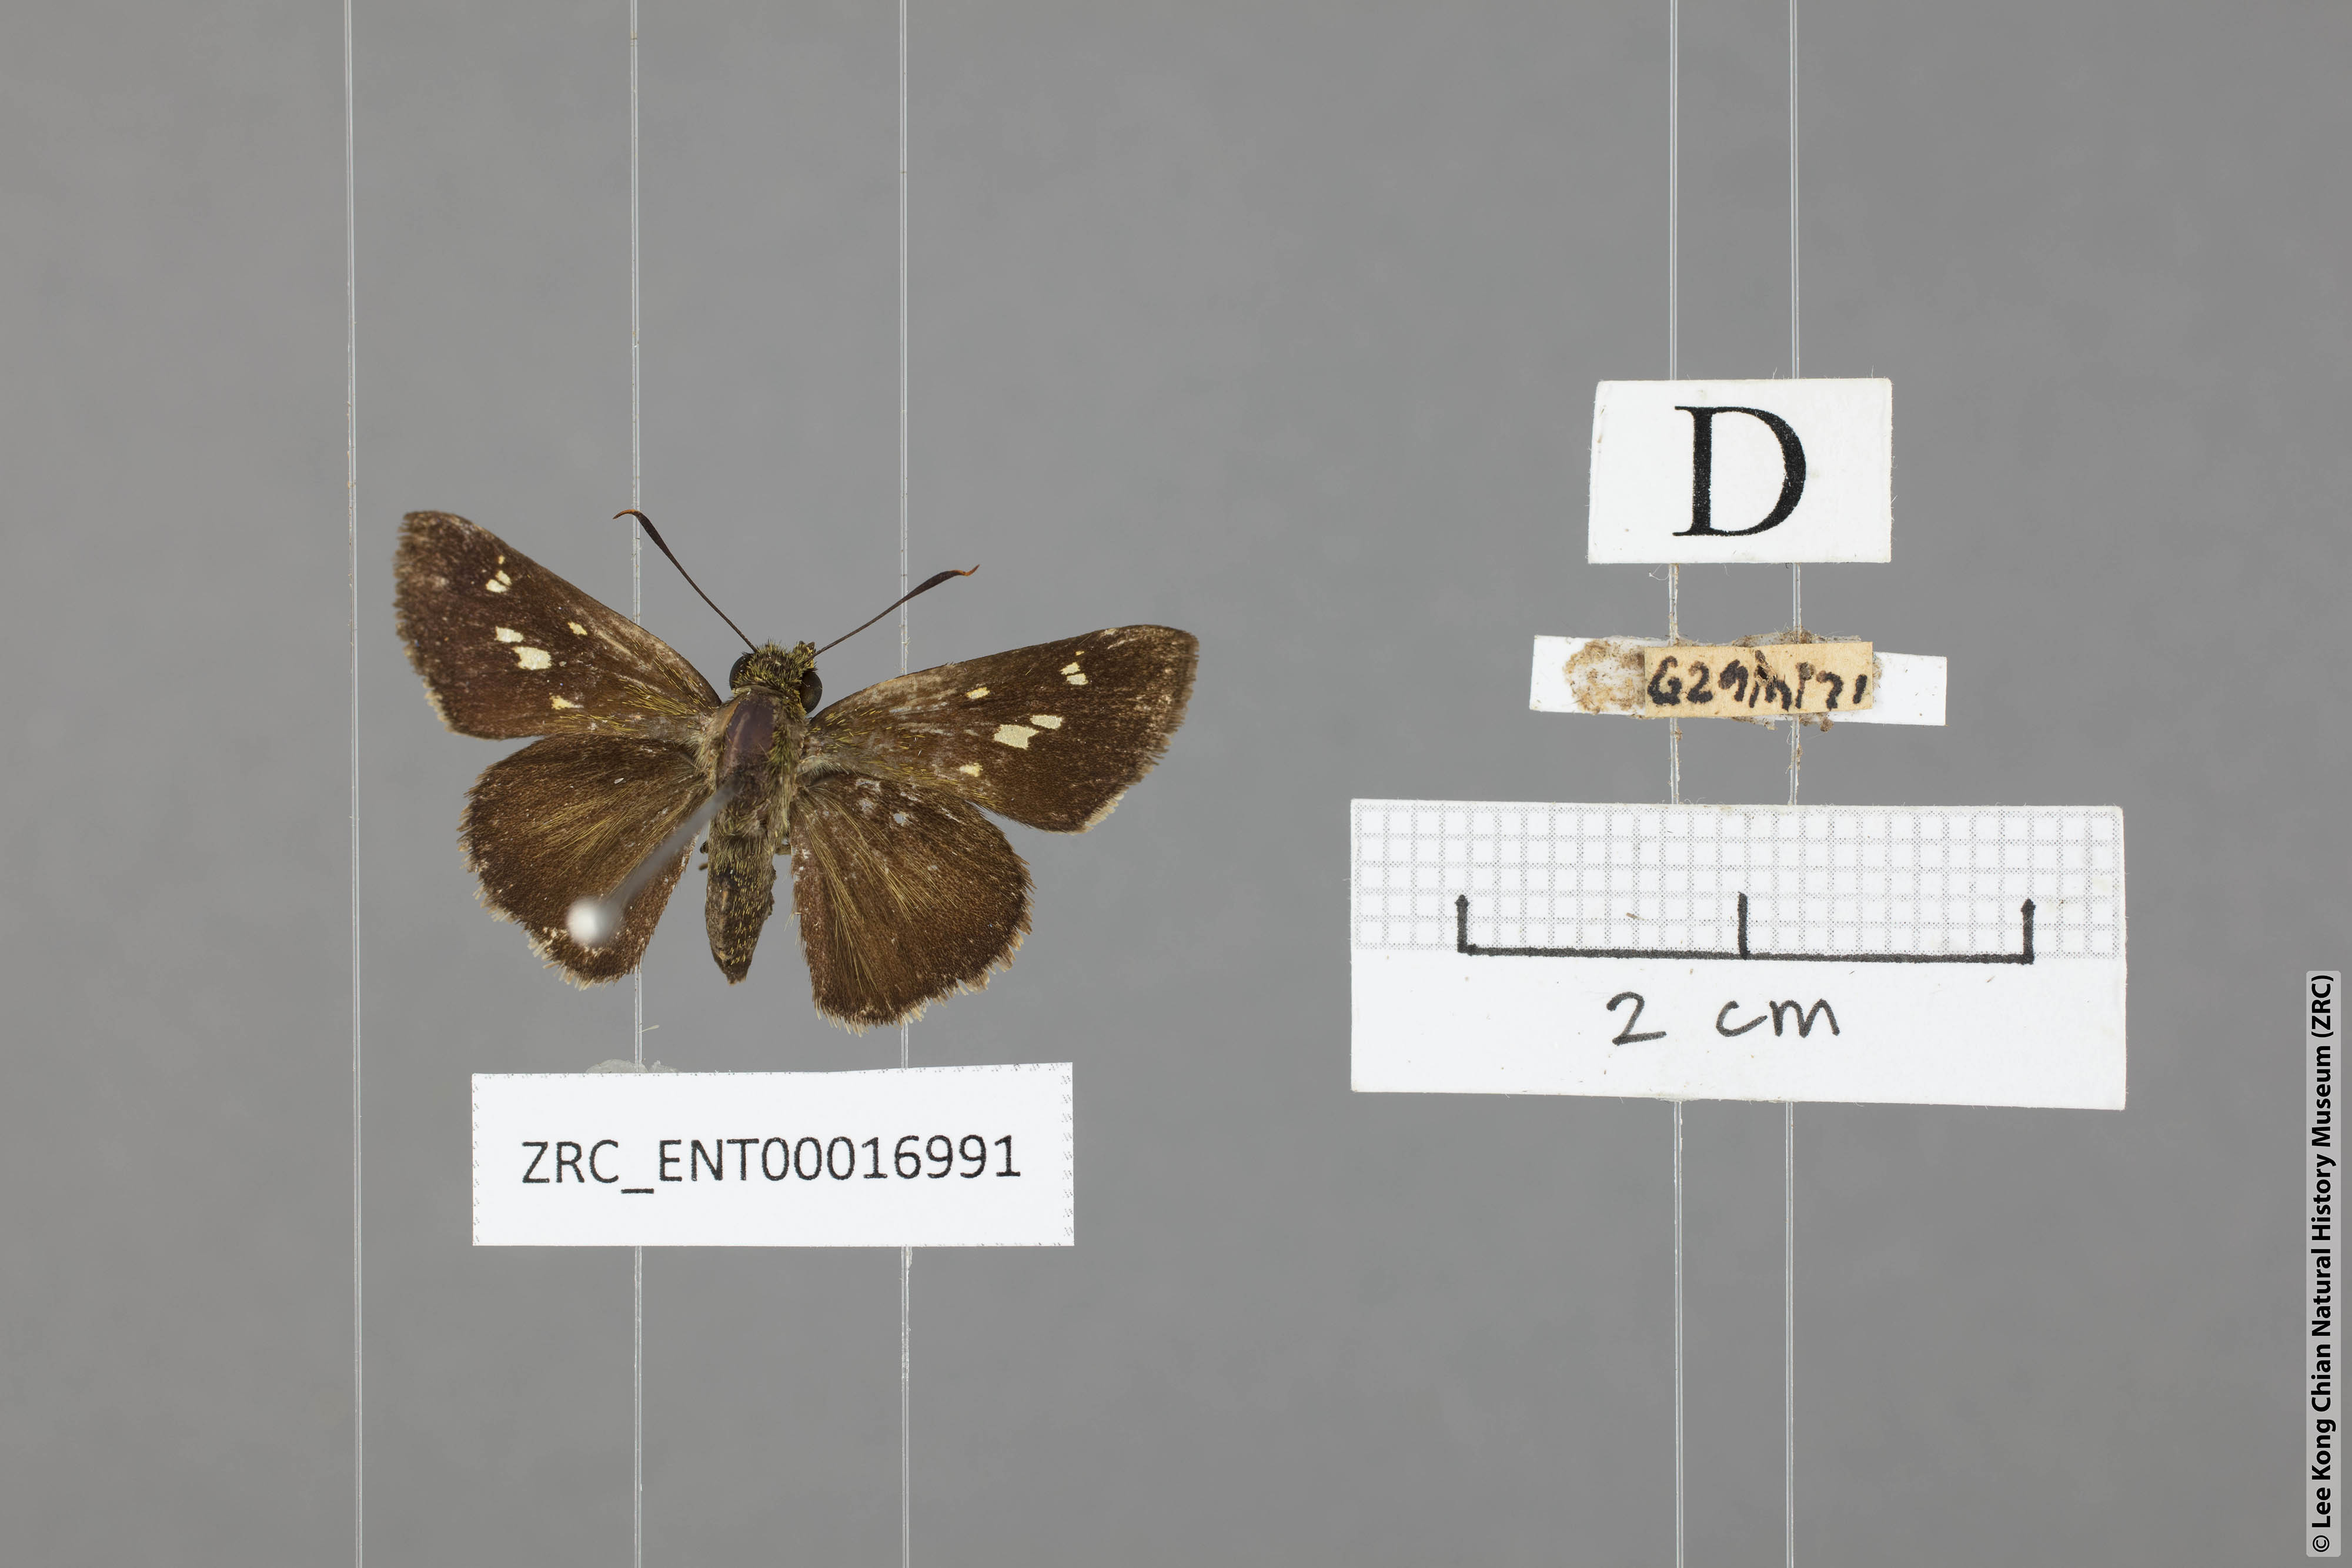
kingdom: Animalia
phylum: Arthropoda
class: Insecta
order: Lepidoptera
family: Hesperiidae
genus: Halpe
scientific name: Halpe flava
